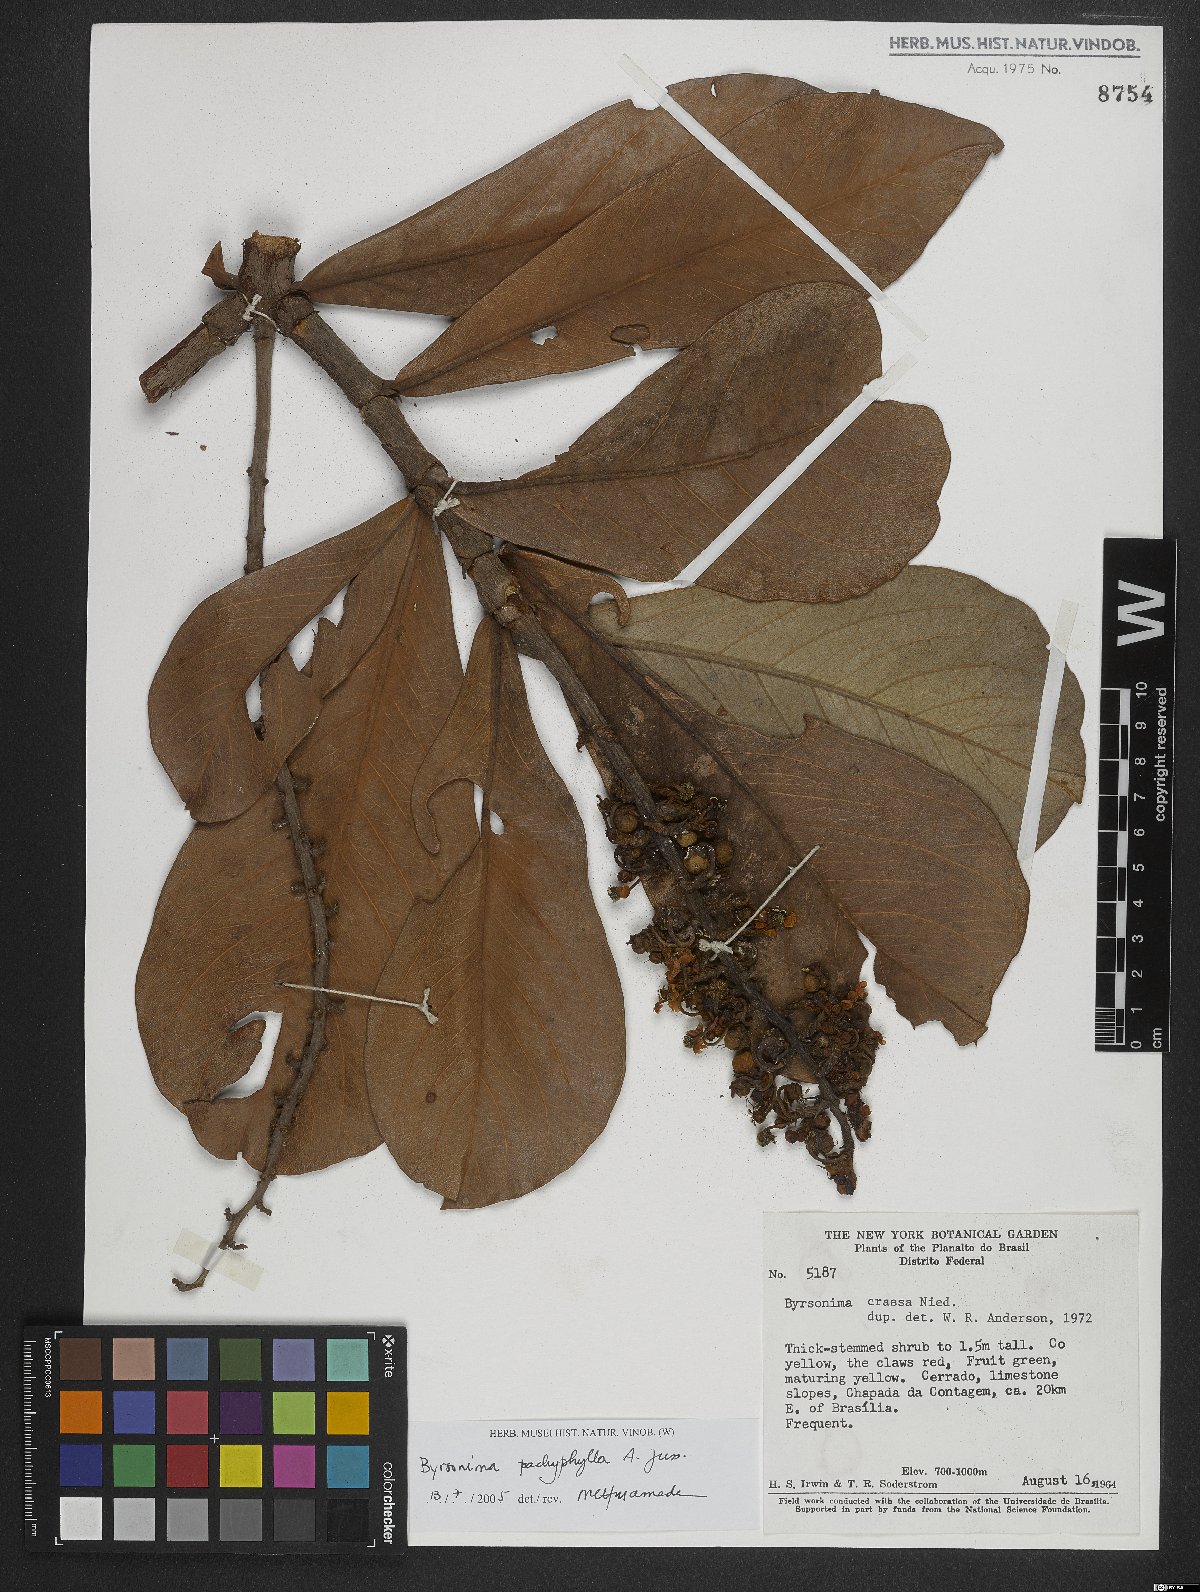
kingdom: Plantae
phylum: Tracheophyta
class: Magnoliopsida
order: Malpighiales
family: Malpighiaceae
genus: Byrsonima
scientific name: Byrsonima pachyphylla
